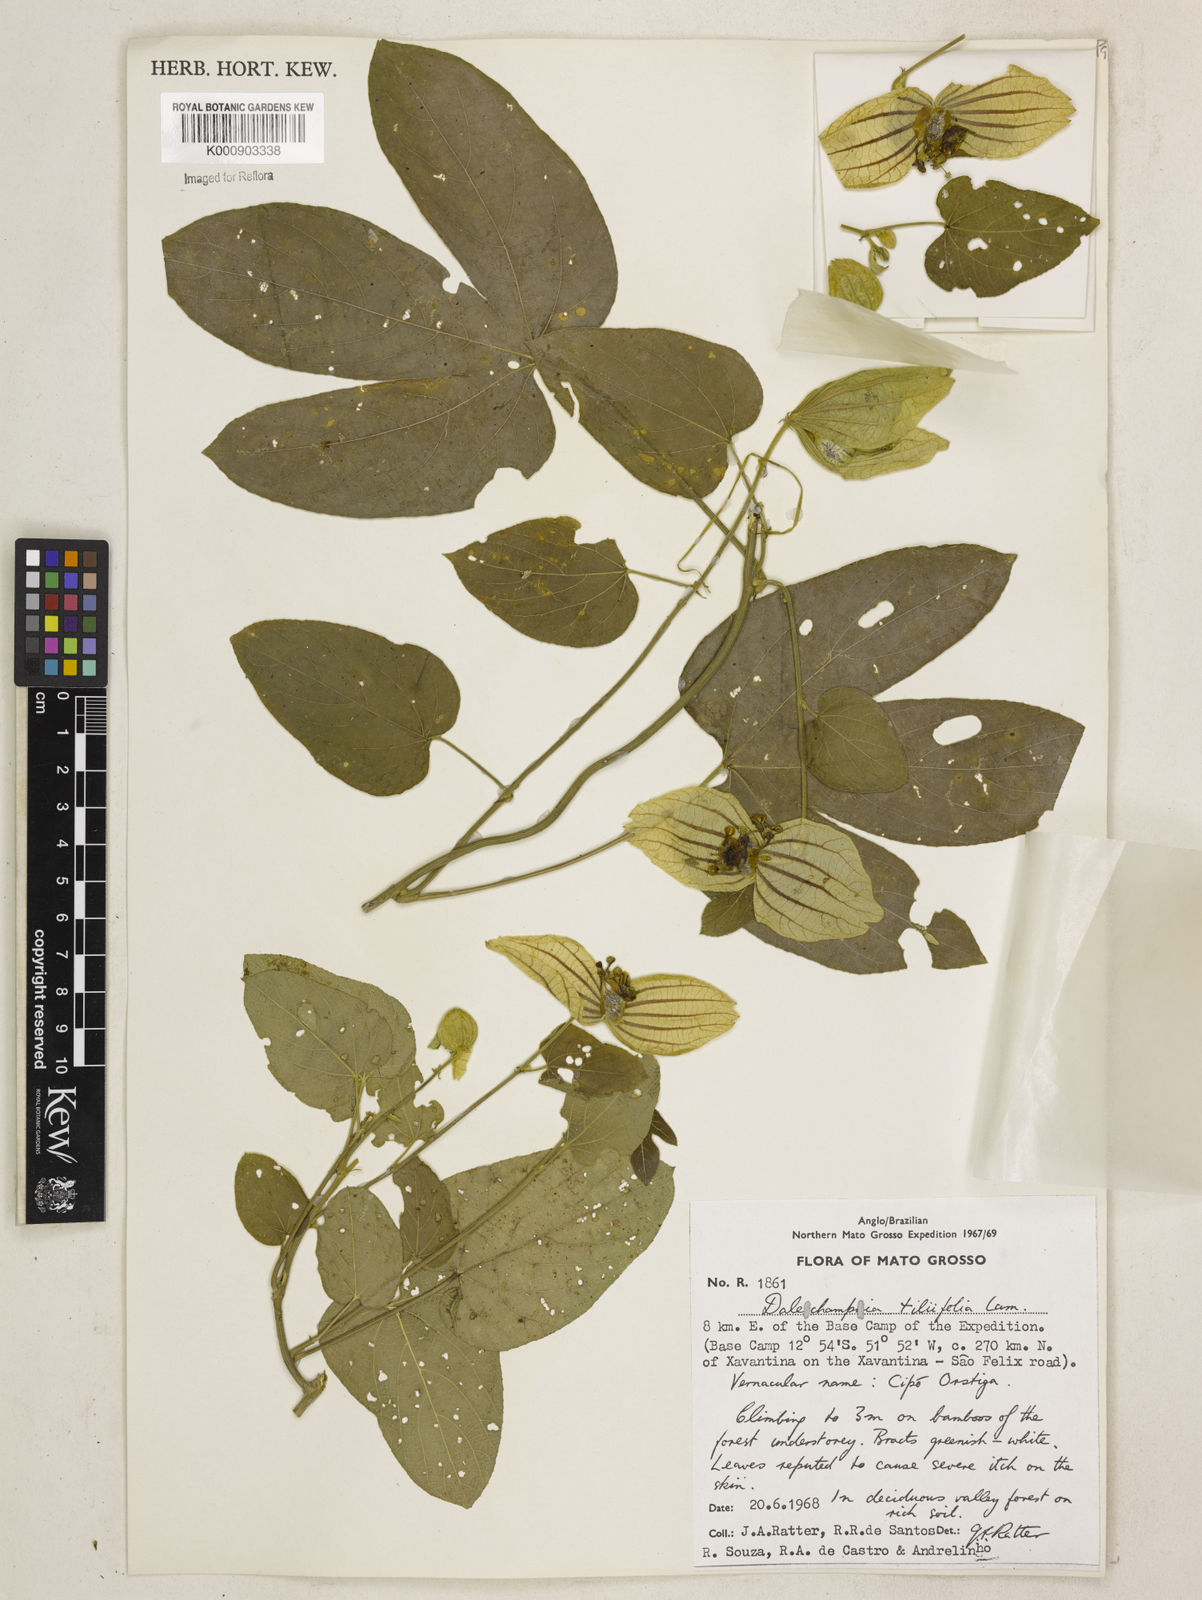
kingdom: Plantae
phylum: Tracheophyta
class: Magnoliopsida
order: Malpighiales
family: Euphorbiaceae
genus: Dalechampia
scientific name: Dalechampia tiliifolia
